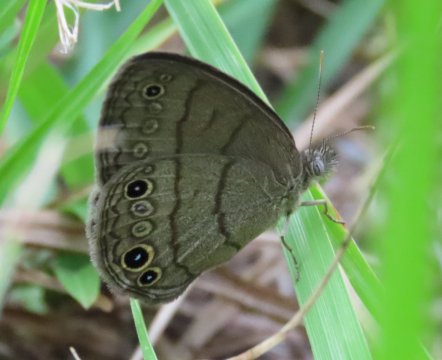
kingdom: Animalia
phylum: Arthropoda
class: Insecta
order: Lepidoptera
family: Nymphalidae
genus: Hermeuptychia
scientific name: Hermeuptychia intricata
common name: Intricate Satyr
